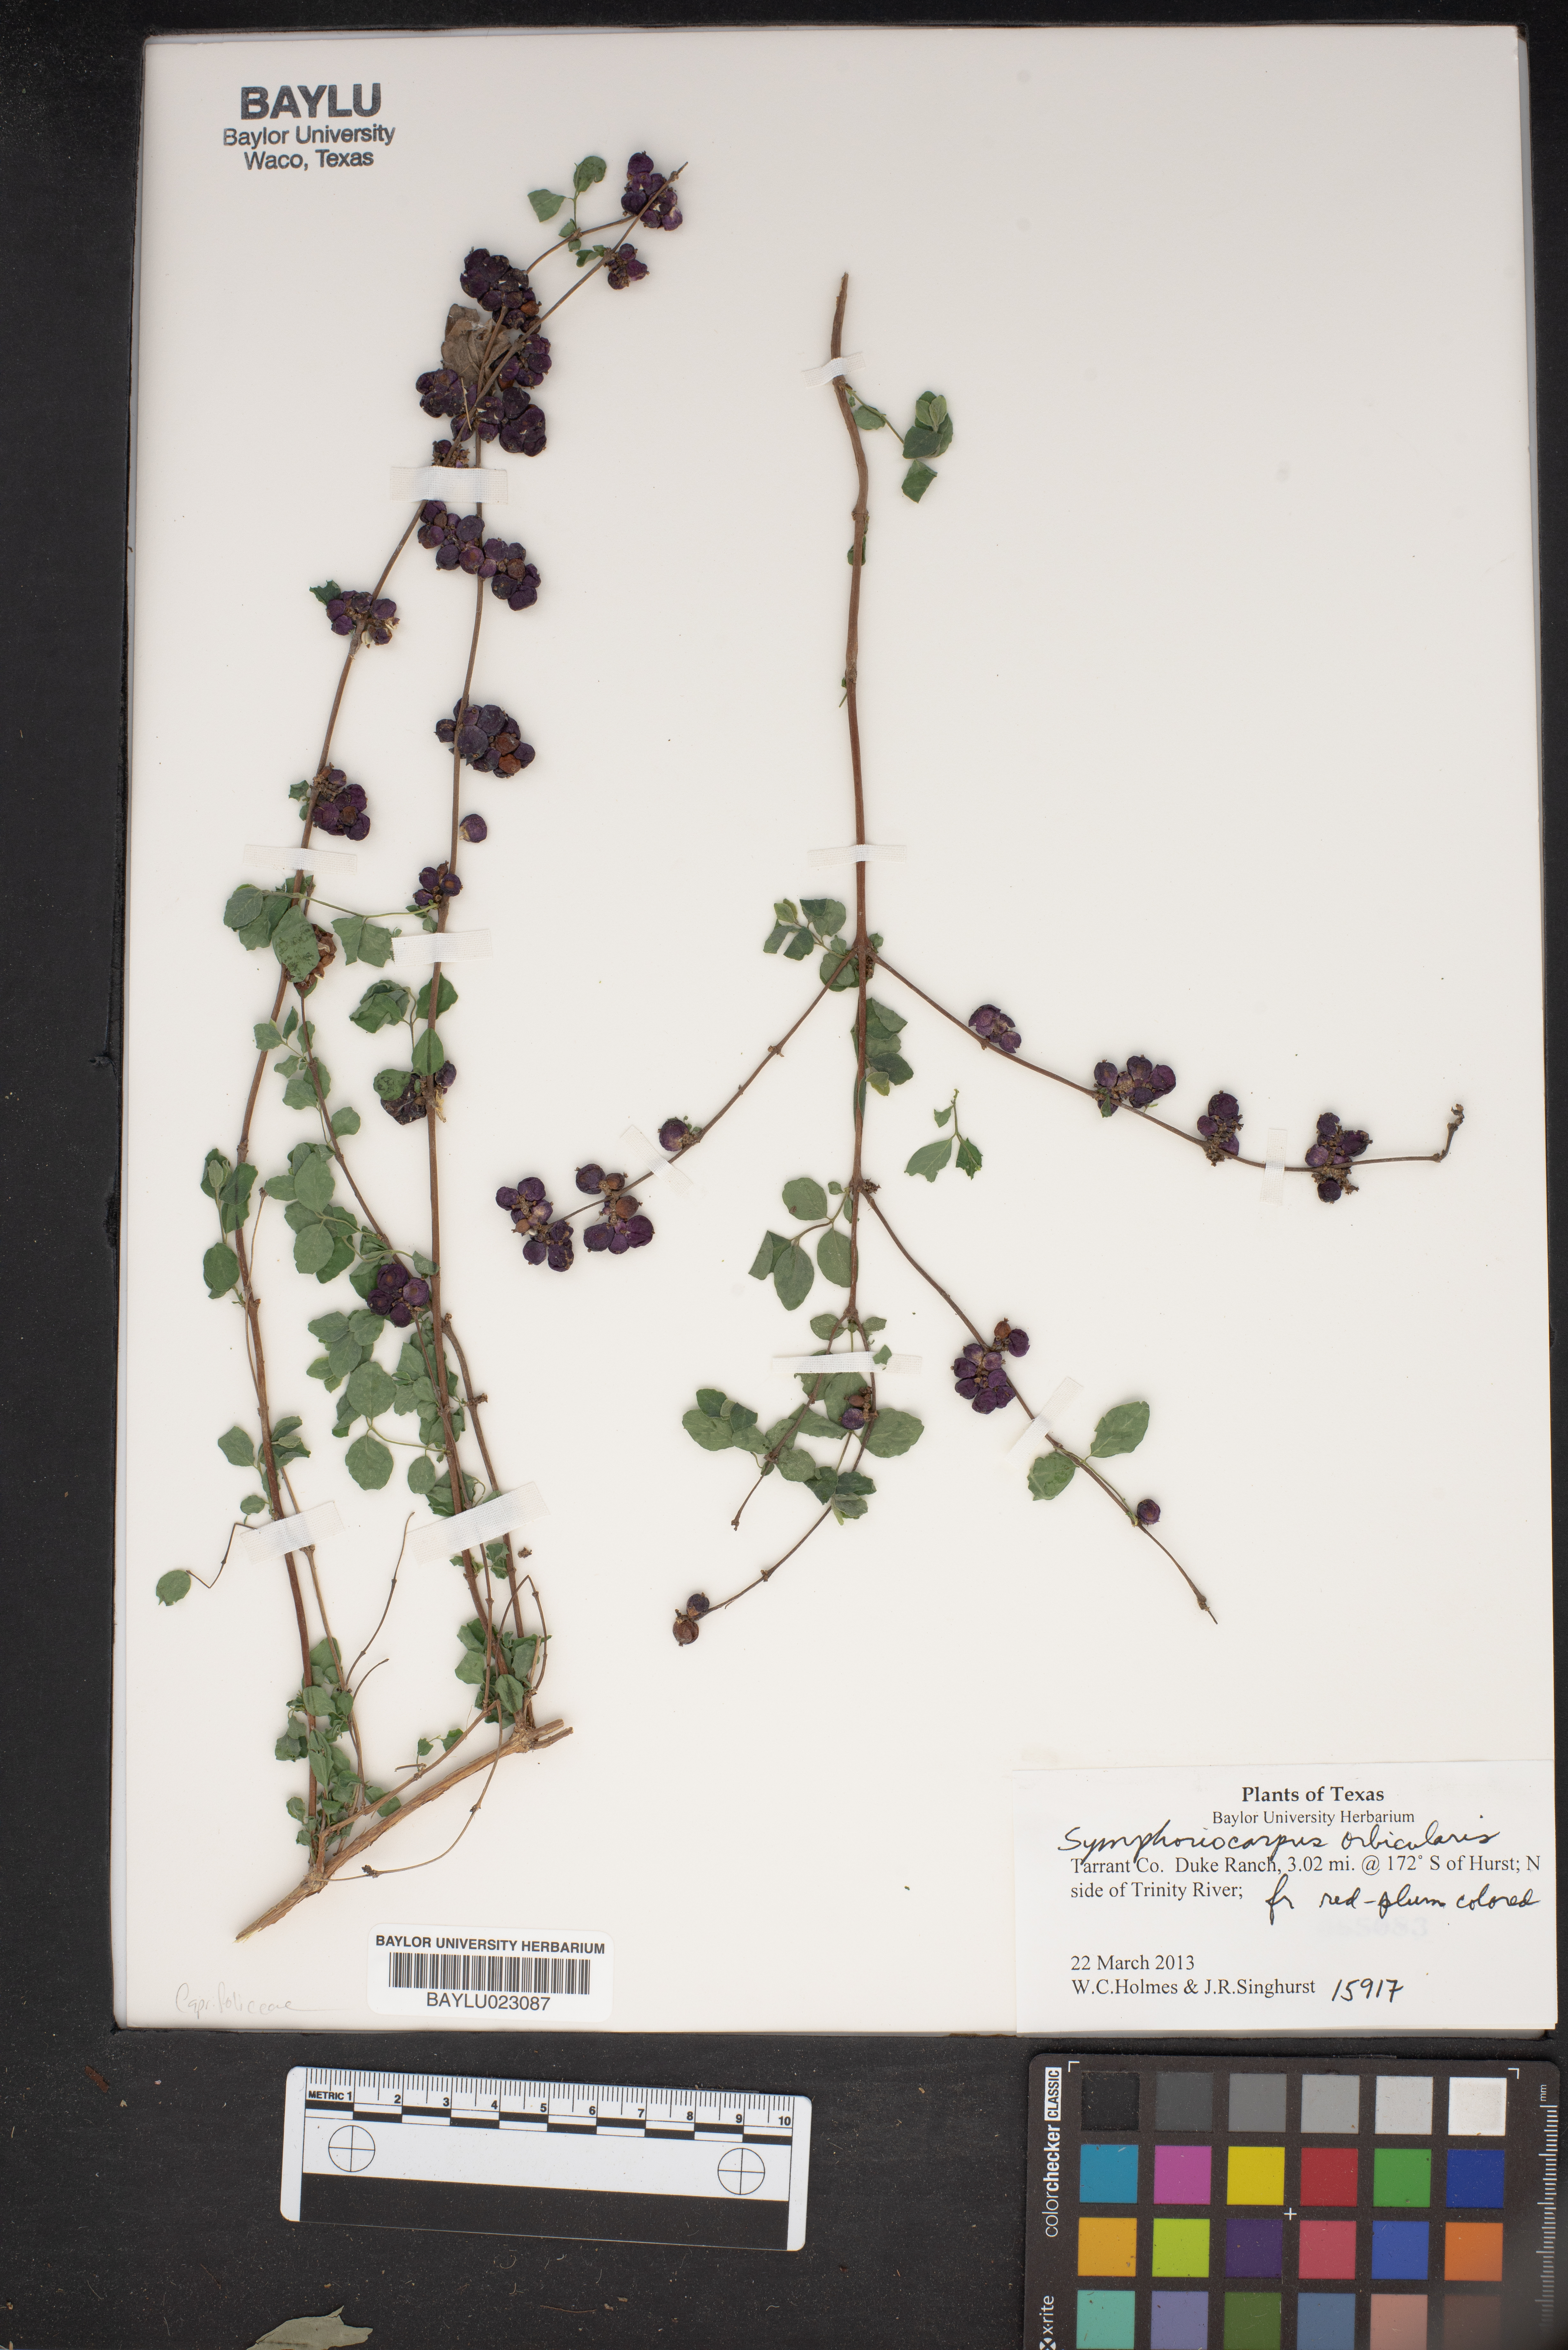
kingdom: Plantae
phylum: Tracheophyta
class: Magnoliopsida
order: Dipsacales
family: Caprifoliaceae
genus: Symphoricarpos
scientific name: Symphoricarpos orbiculatus
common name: Coralberry
